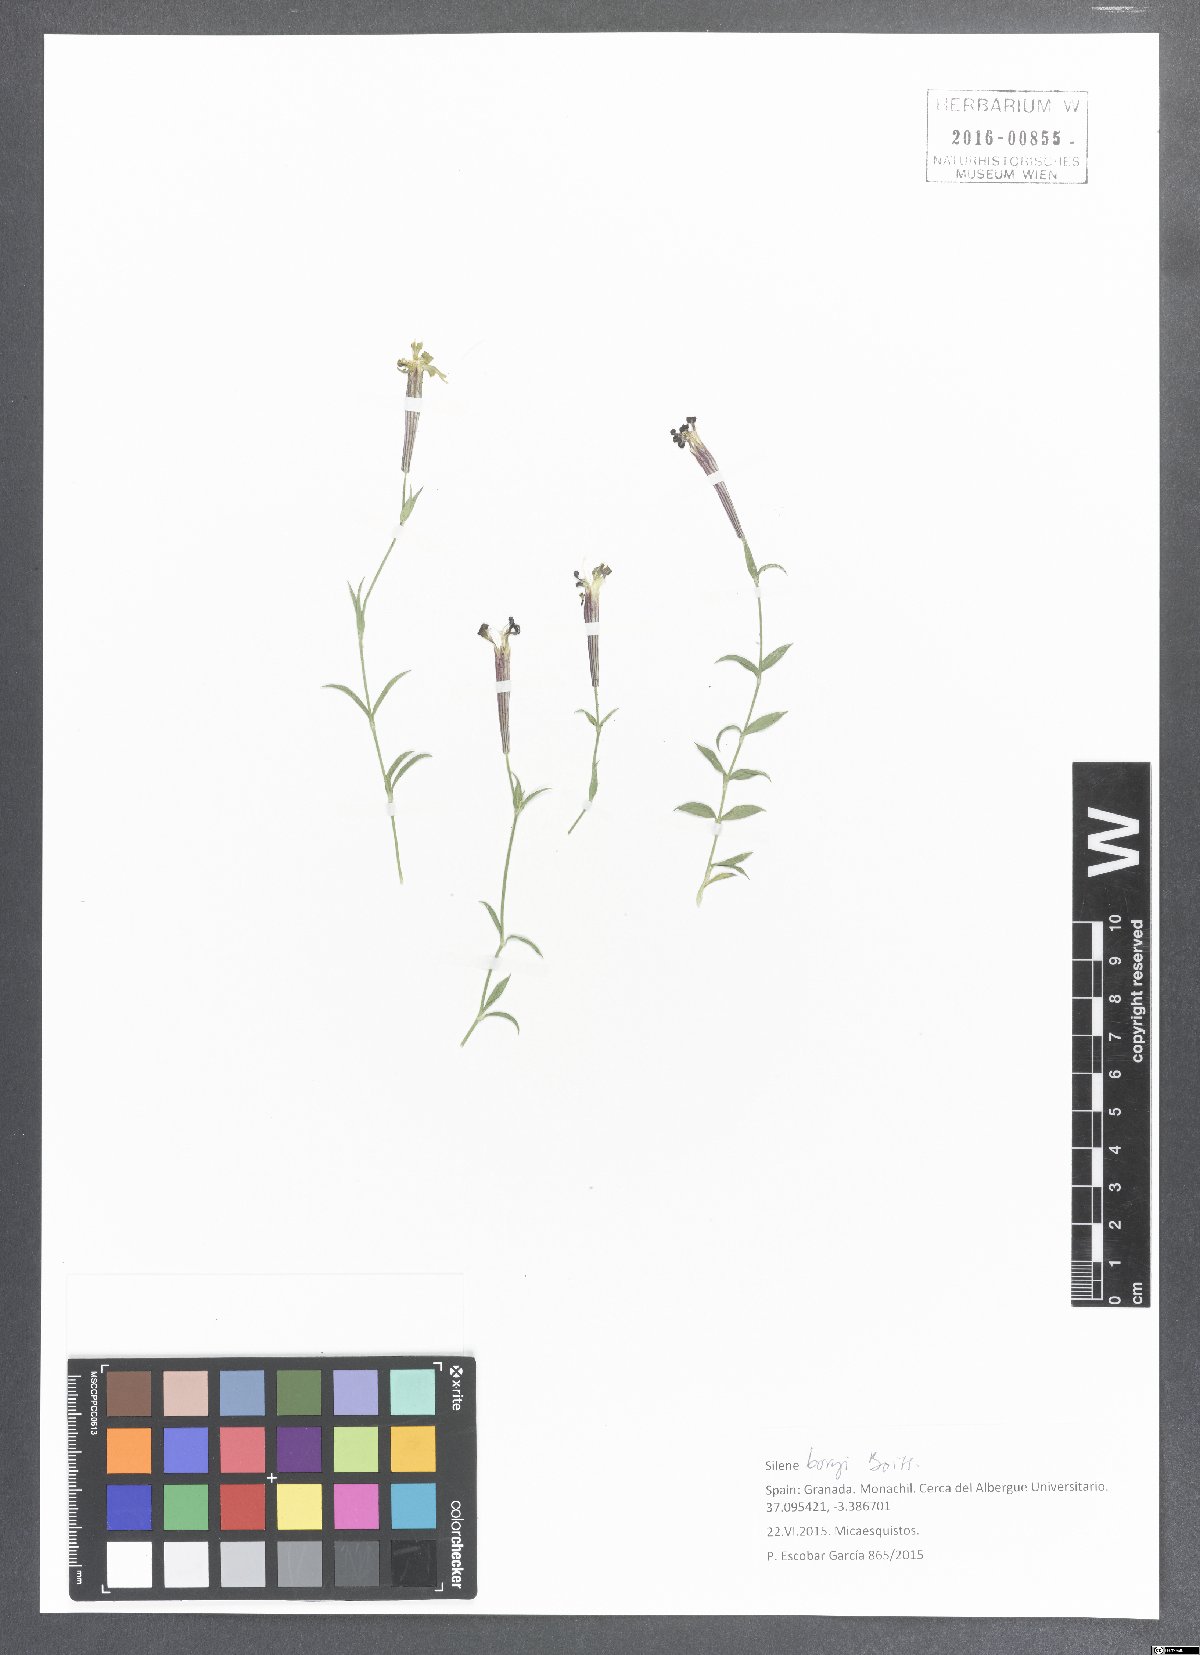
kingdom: Plantae
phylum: Tracheophyta
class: Magnoliopsida
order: Caryophyllales
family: Caryophyllaceae
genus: Silene
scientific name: Silene boryi
